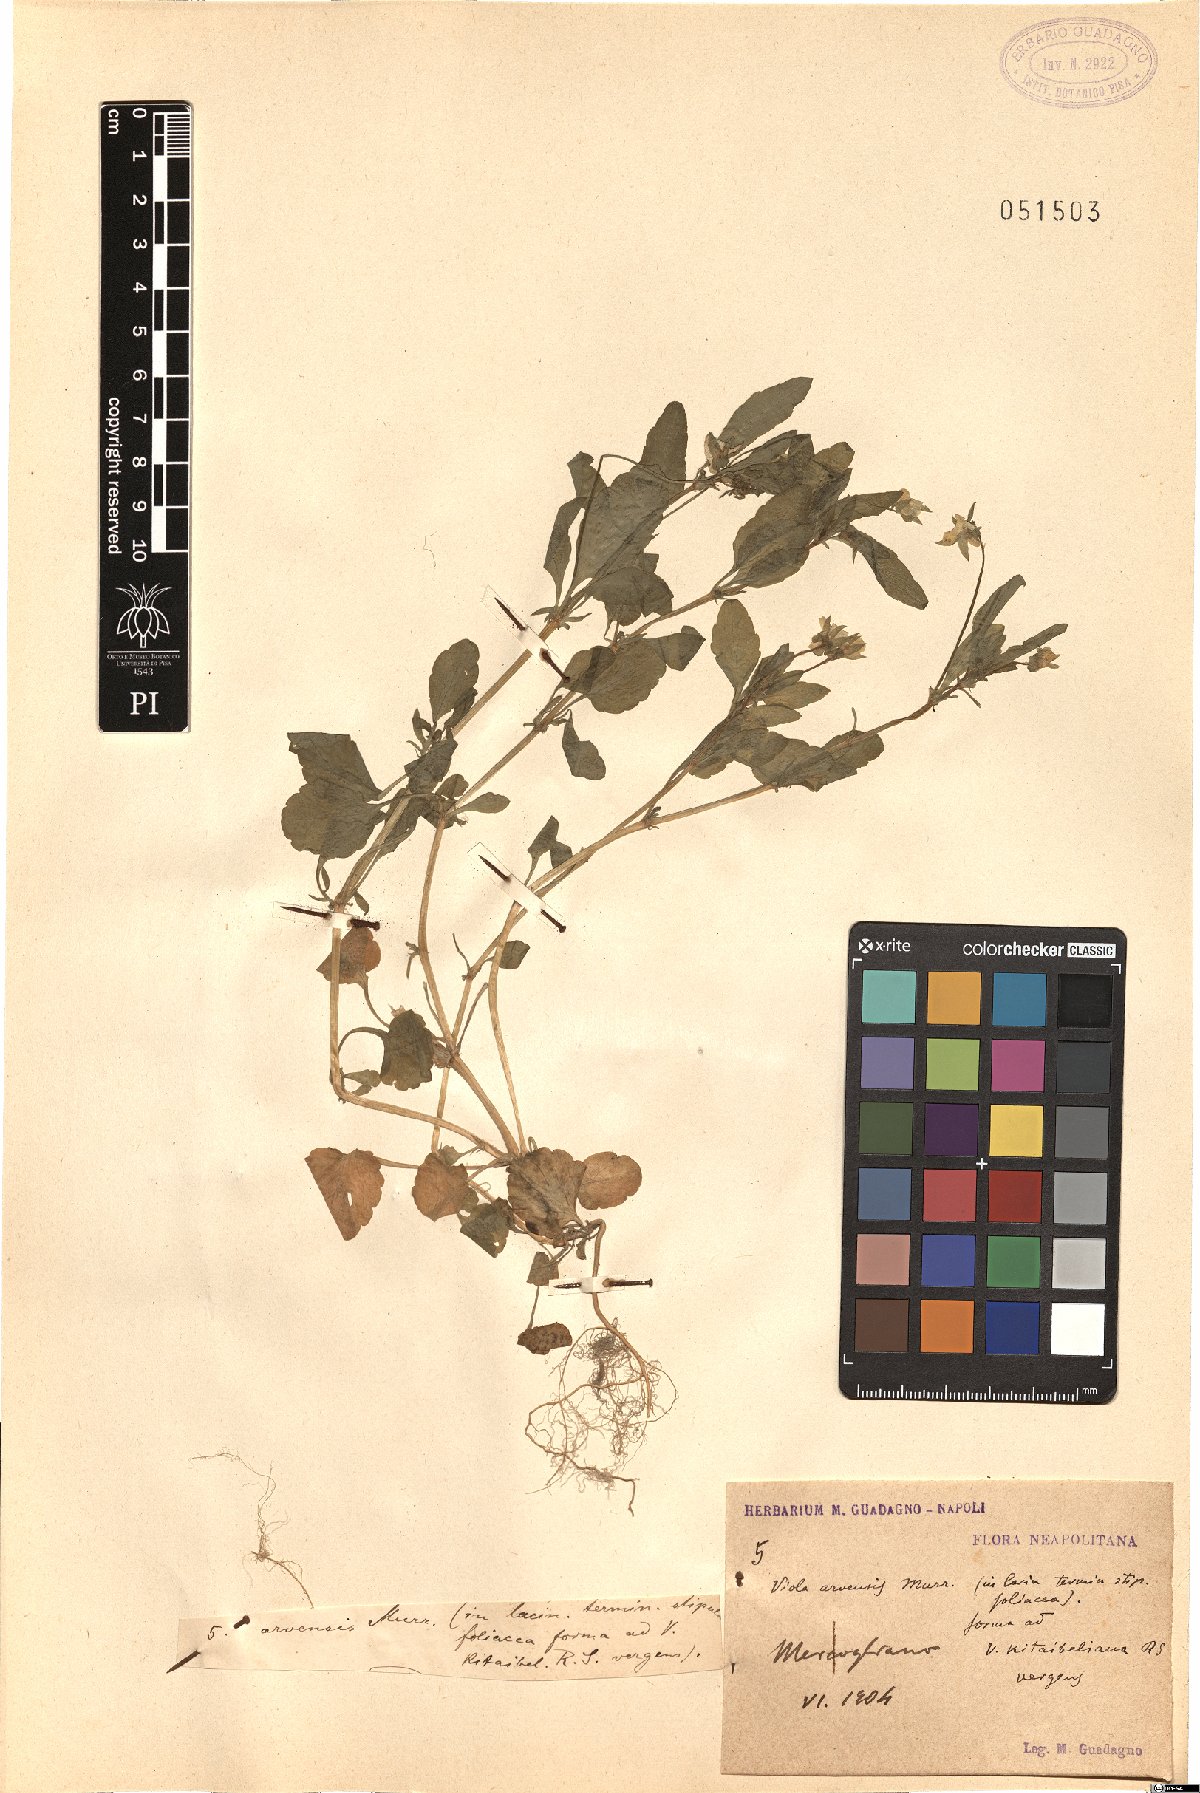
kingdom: Plantae
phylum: Tracheophyta
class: Magnoliopsida
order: Malpighiales
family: Violaceae
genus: Viola
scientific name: Viola arvensis
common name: Field pansy
